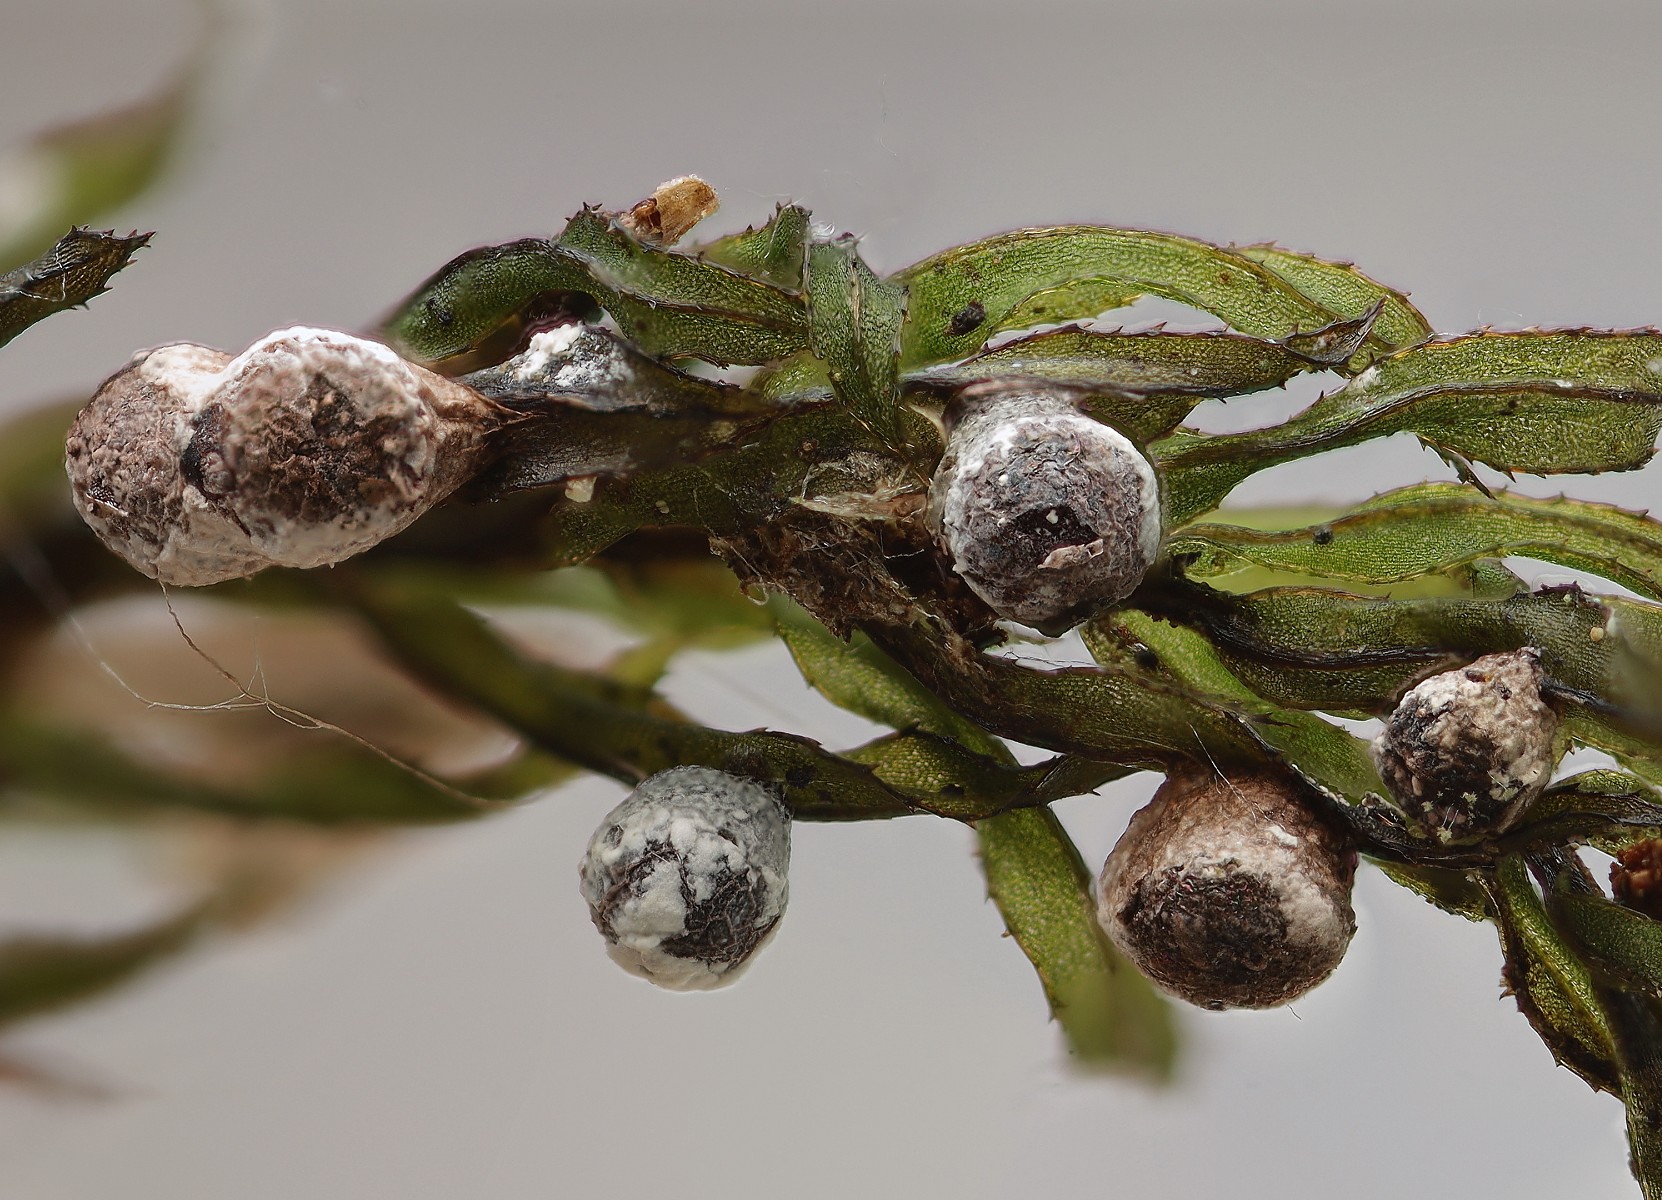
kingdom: Protozoa
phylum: Mycetozoa
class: Myxomycetes
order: Physarales
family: Physaraceae
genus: Physarum
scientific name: Physarum bitectum
